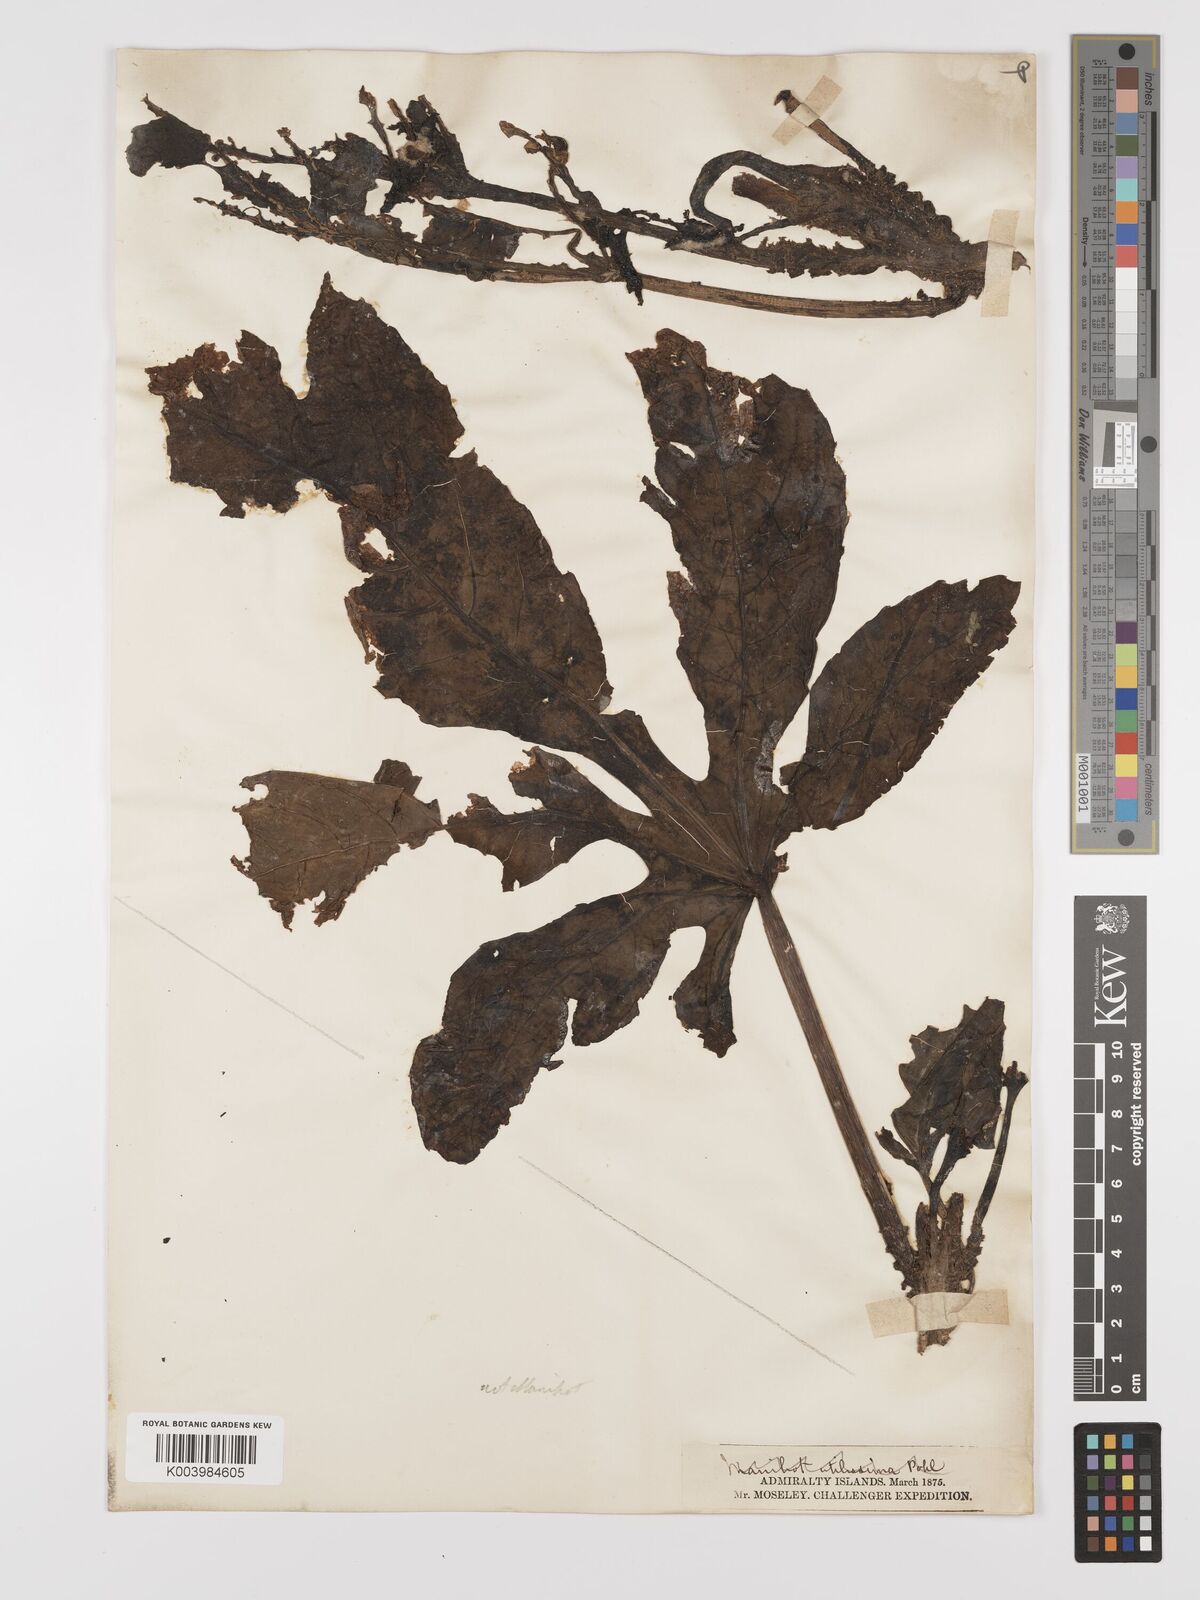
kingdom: Plantae
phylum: Tracheophyta
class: Magnoliopsida
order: Malpighiales
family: Euphorbiaceae
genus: Jatropha
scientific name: Jatropha
